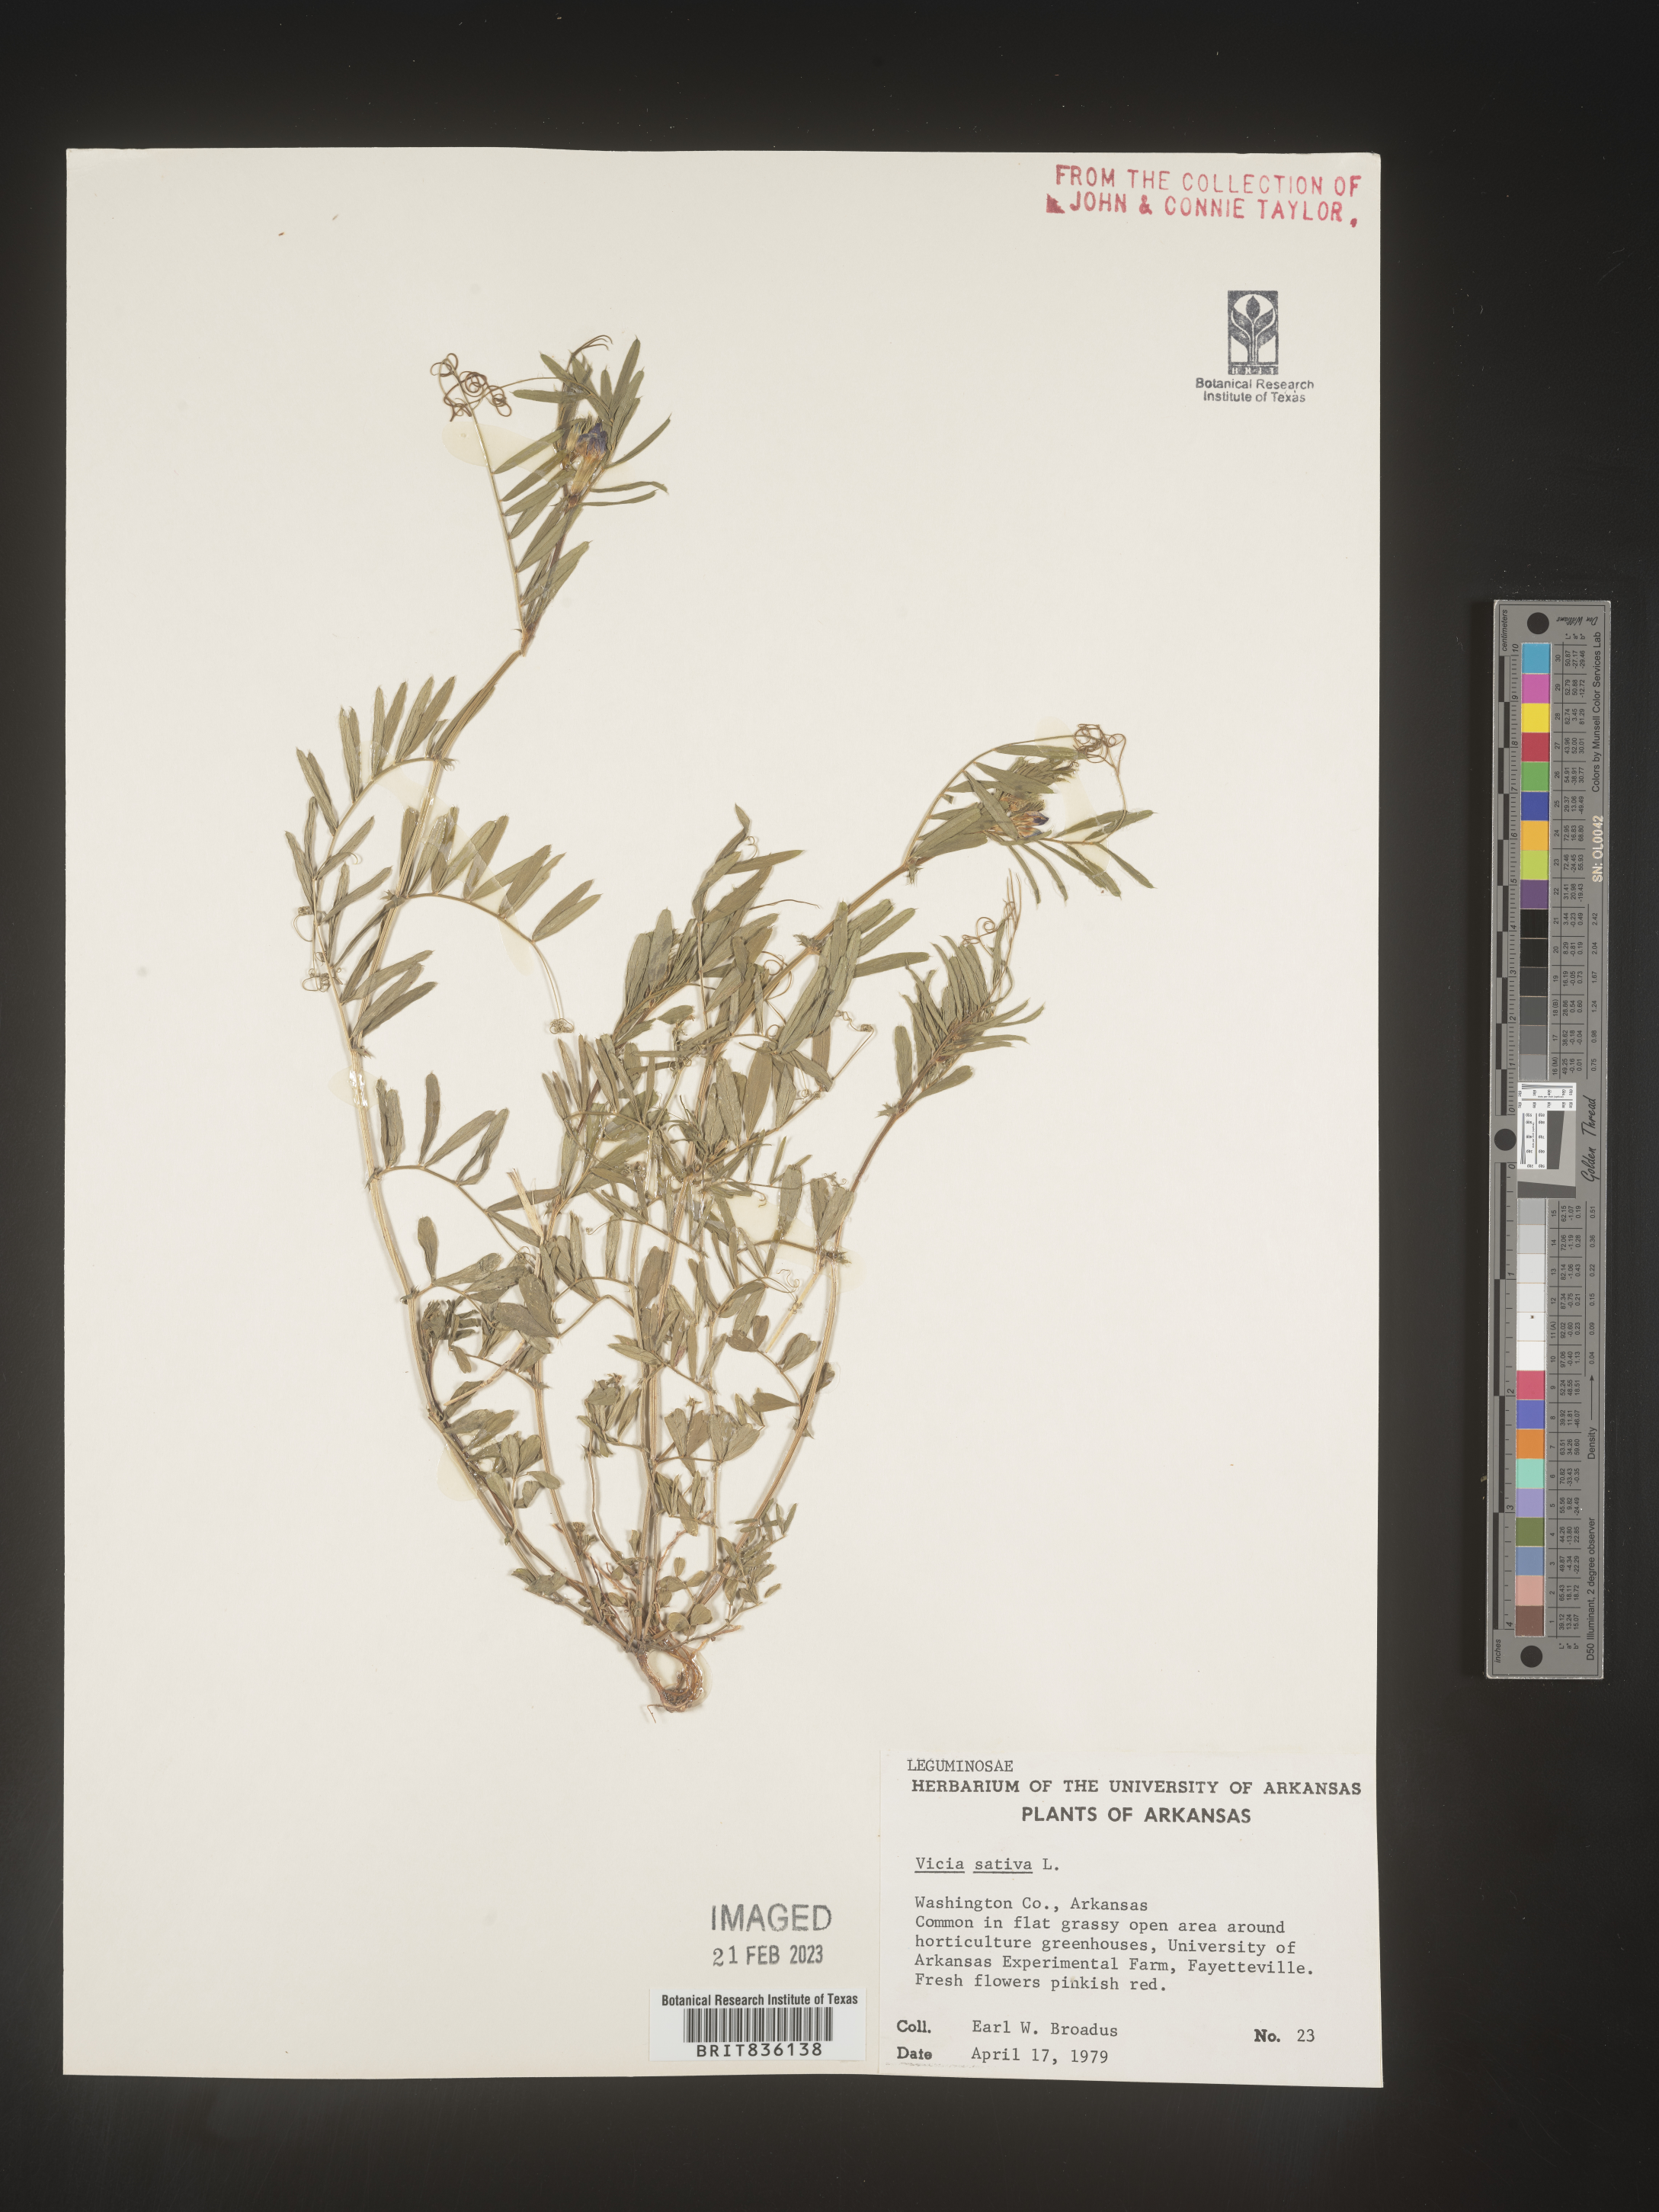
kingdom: Plantae
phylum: Tracheophyta
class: Magnoliopsida
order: Fabales
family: Fabaceae
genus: Vicia
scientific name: Vicia sativa
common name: Garden vetch
